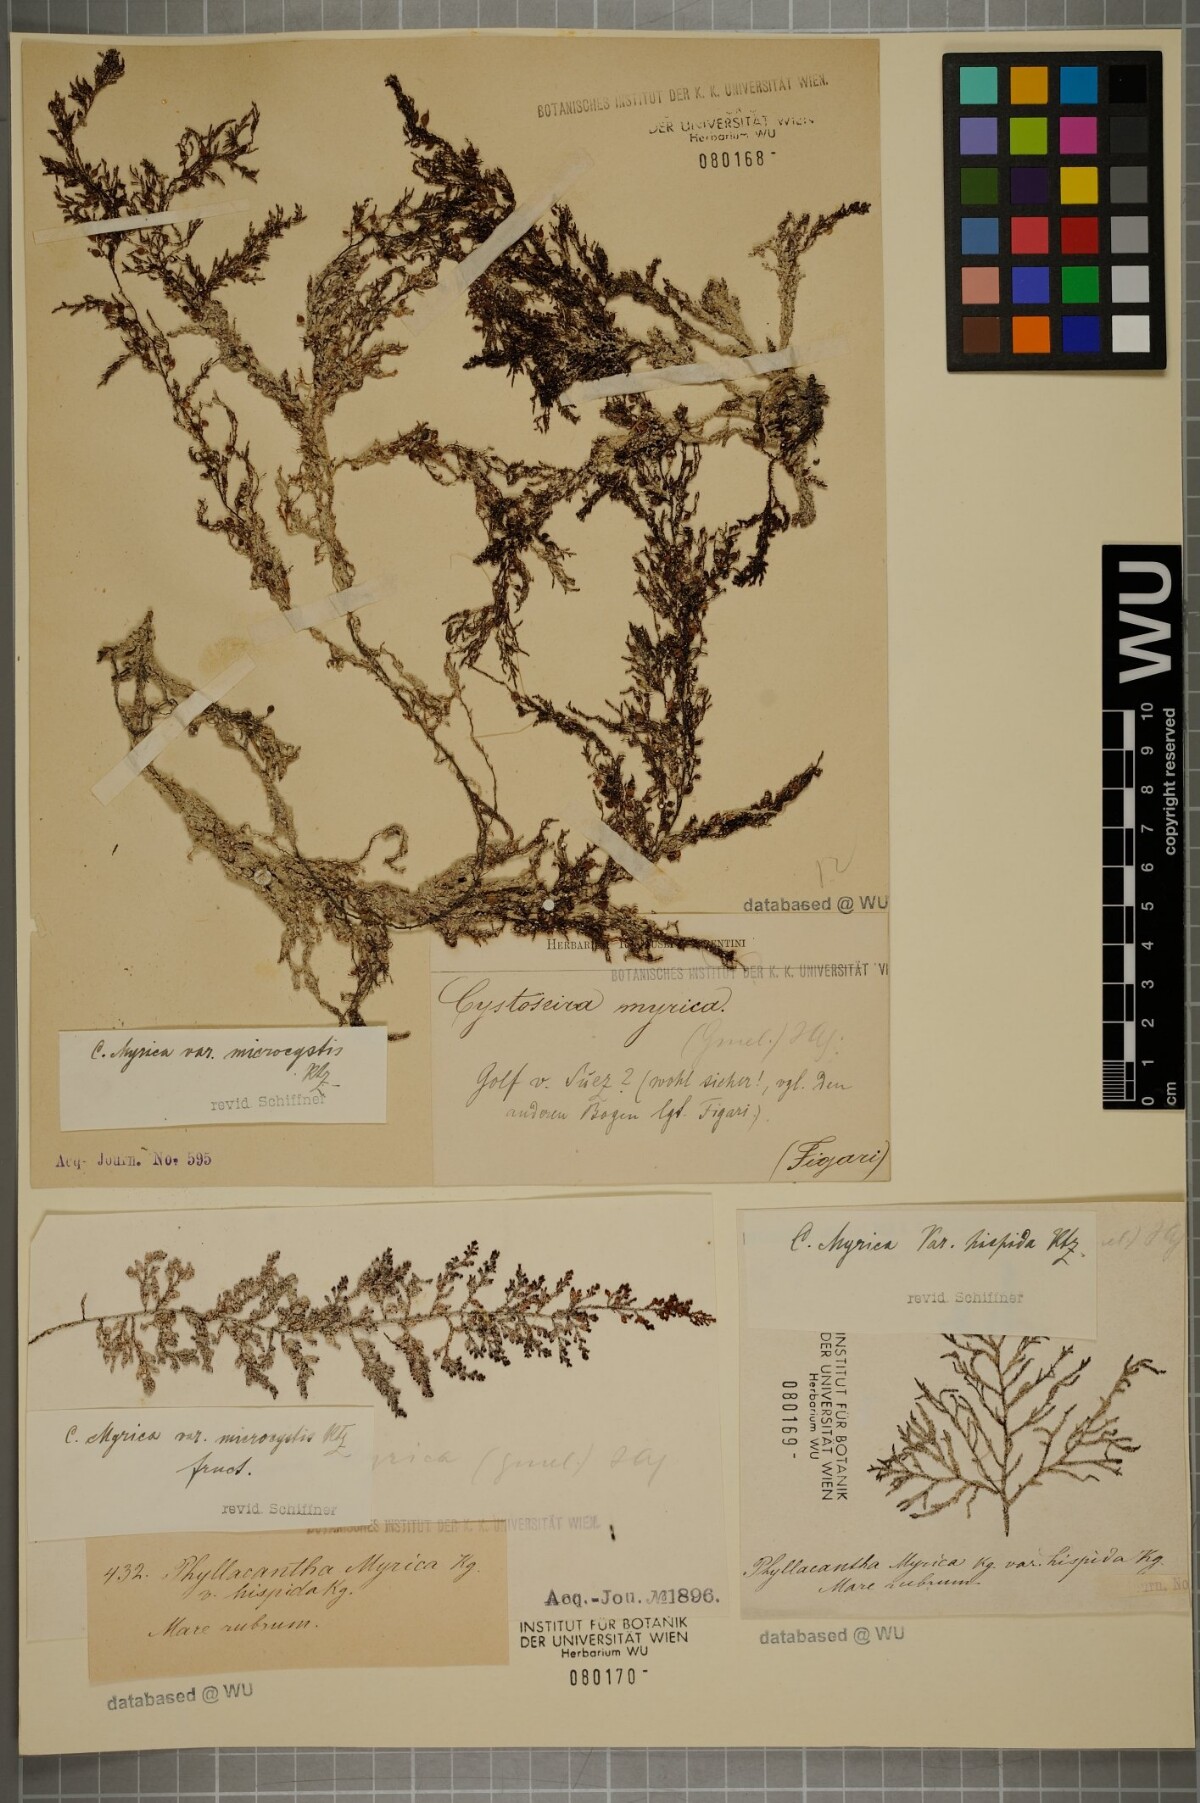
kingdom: Chromista
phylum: Ochrophyta
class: Phaeophyceae
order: Fucales
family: Sargassaceae
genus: Polycladia
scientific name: Polycladia myrica
